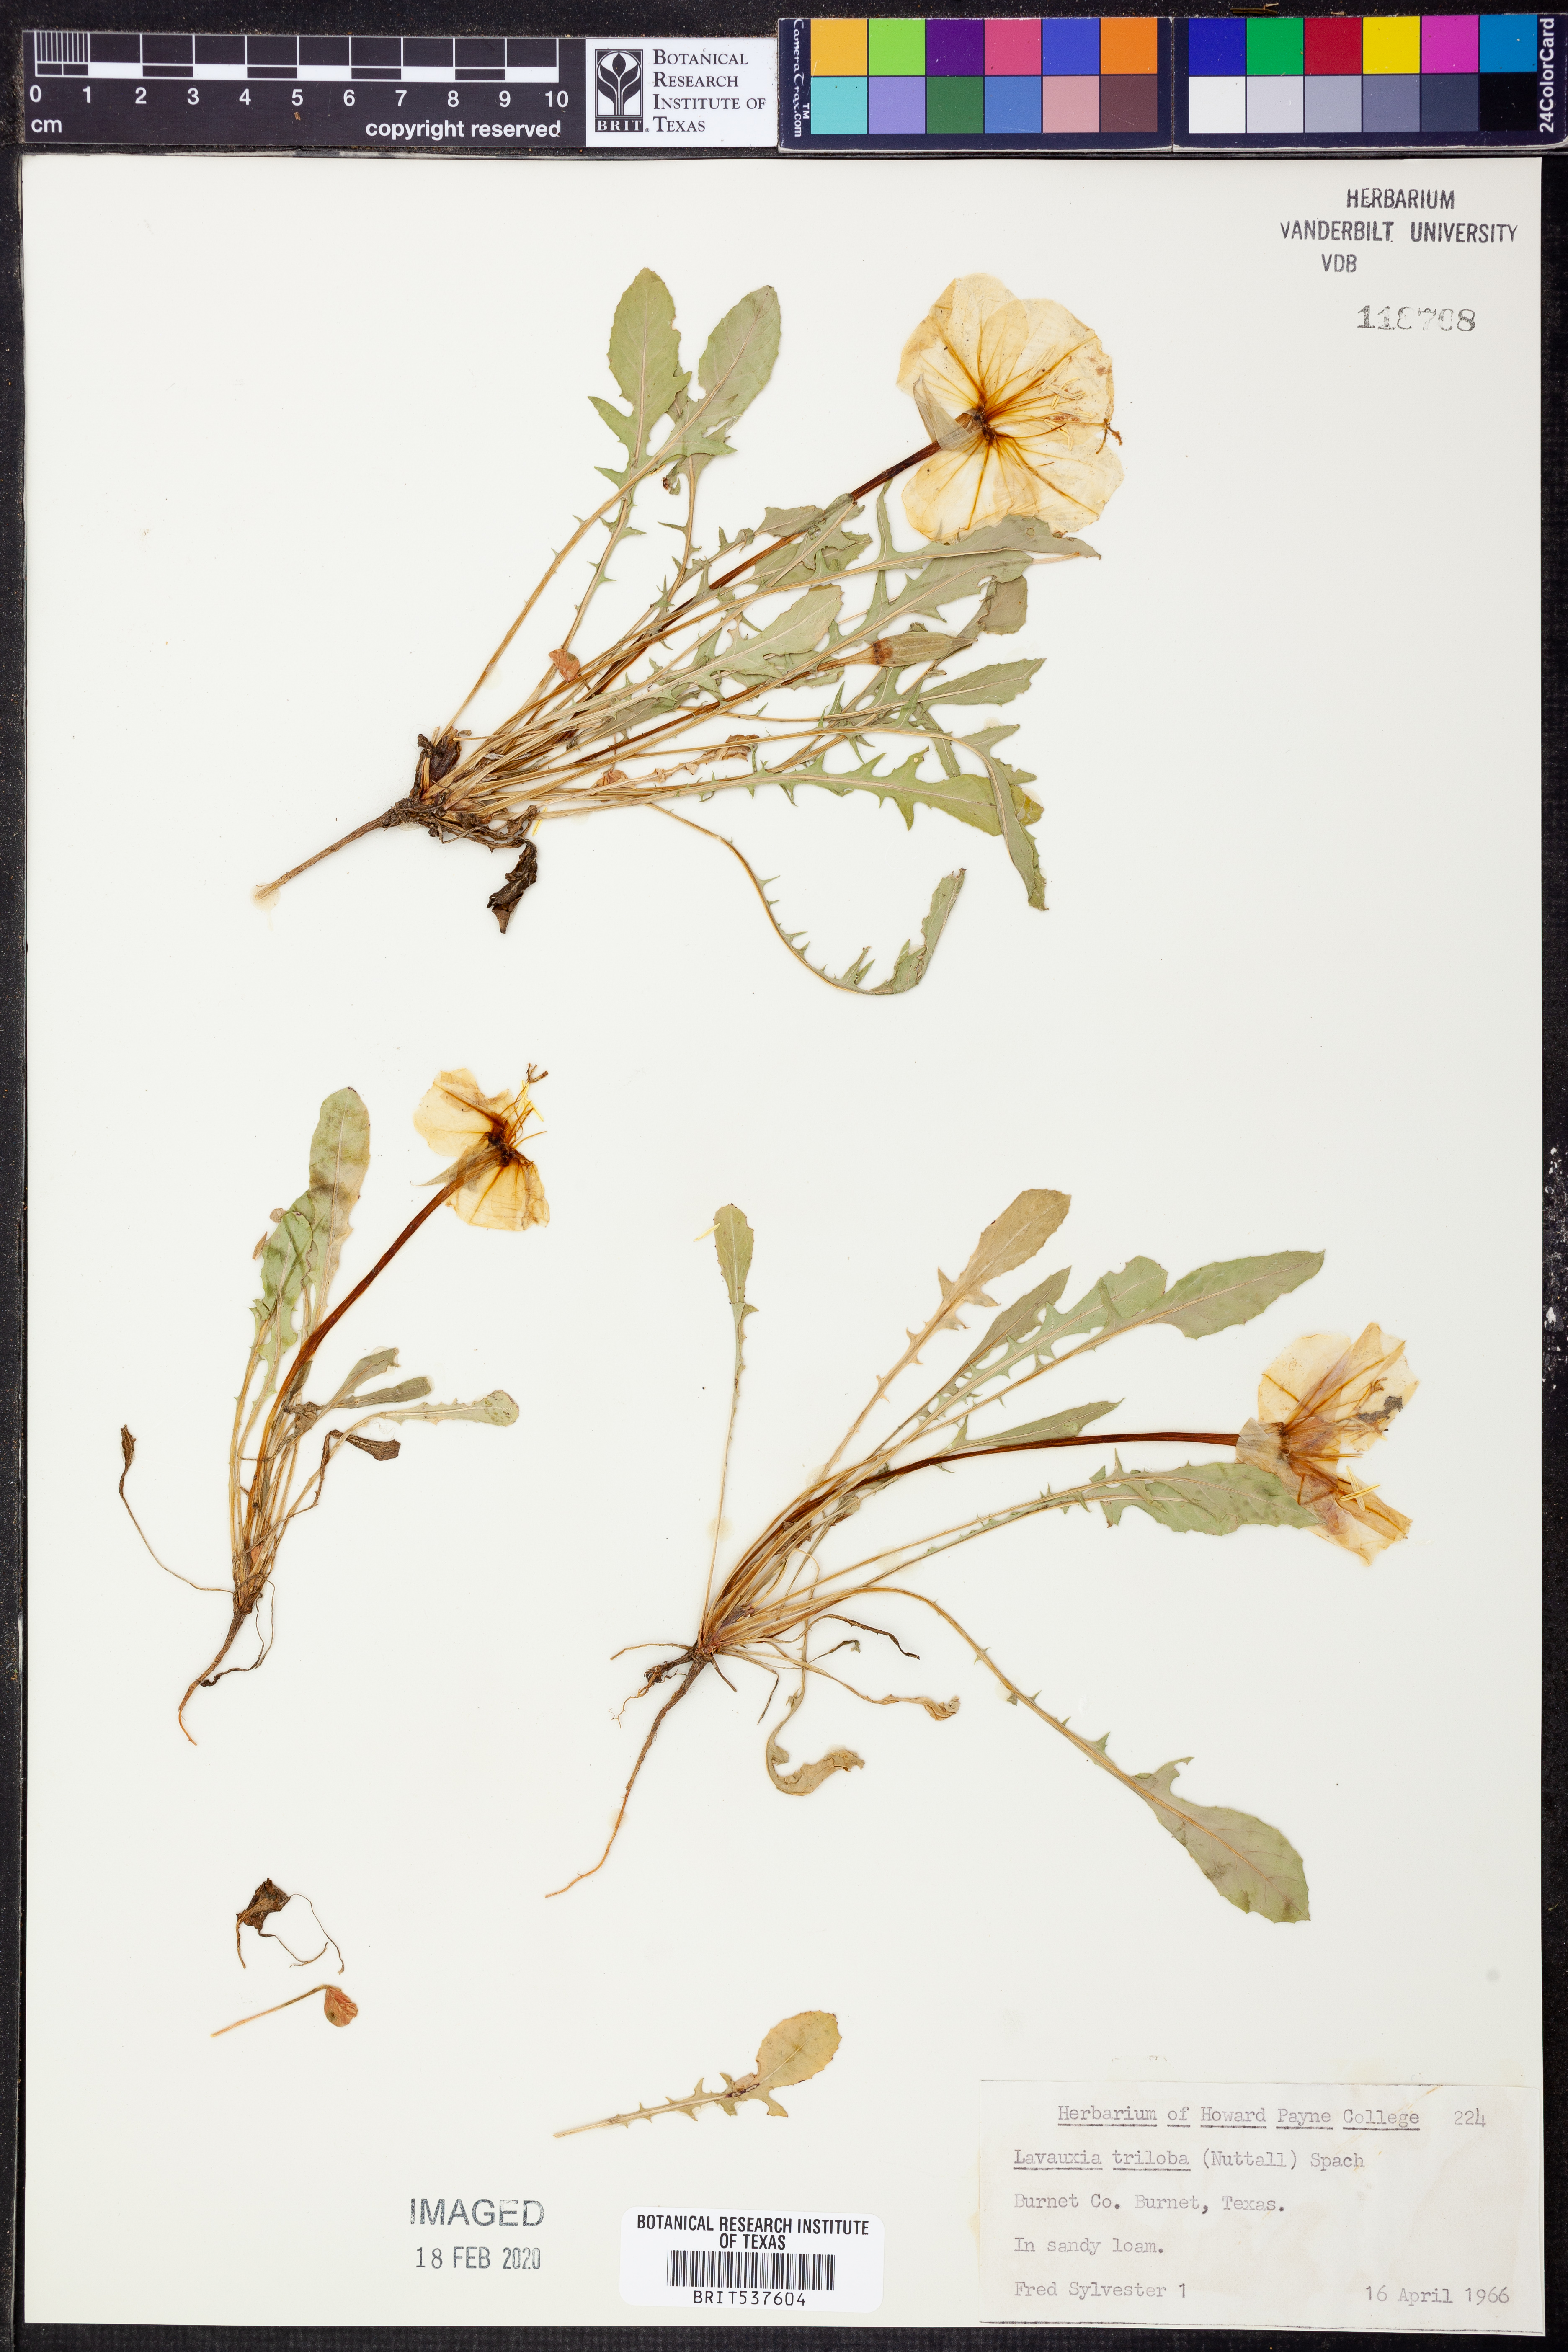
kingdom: Plantae
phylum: Tracheophyta
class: Magnoliopsida
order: Myrtales
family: Onagraceae
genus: Oenothera
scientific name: Oenothera triloba
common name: Sessile evening-primrose
